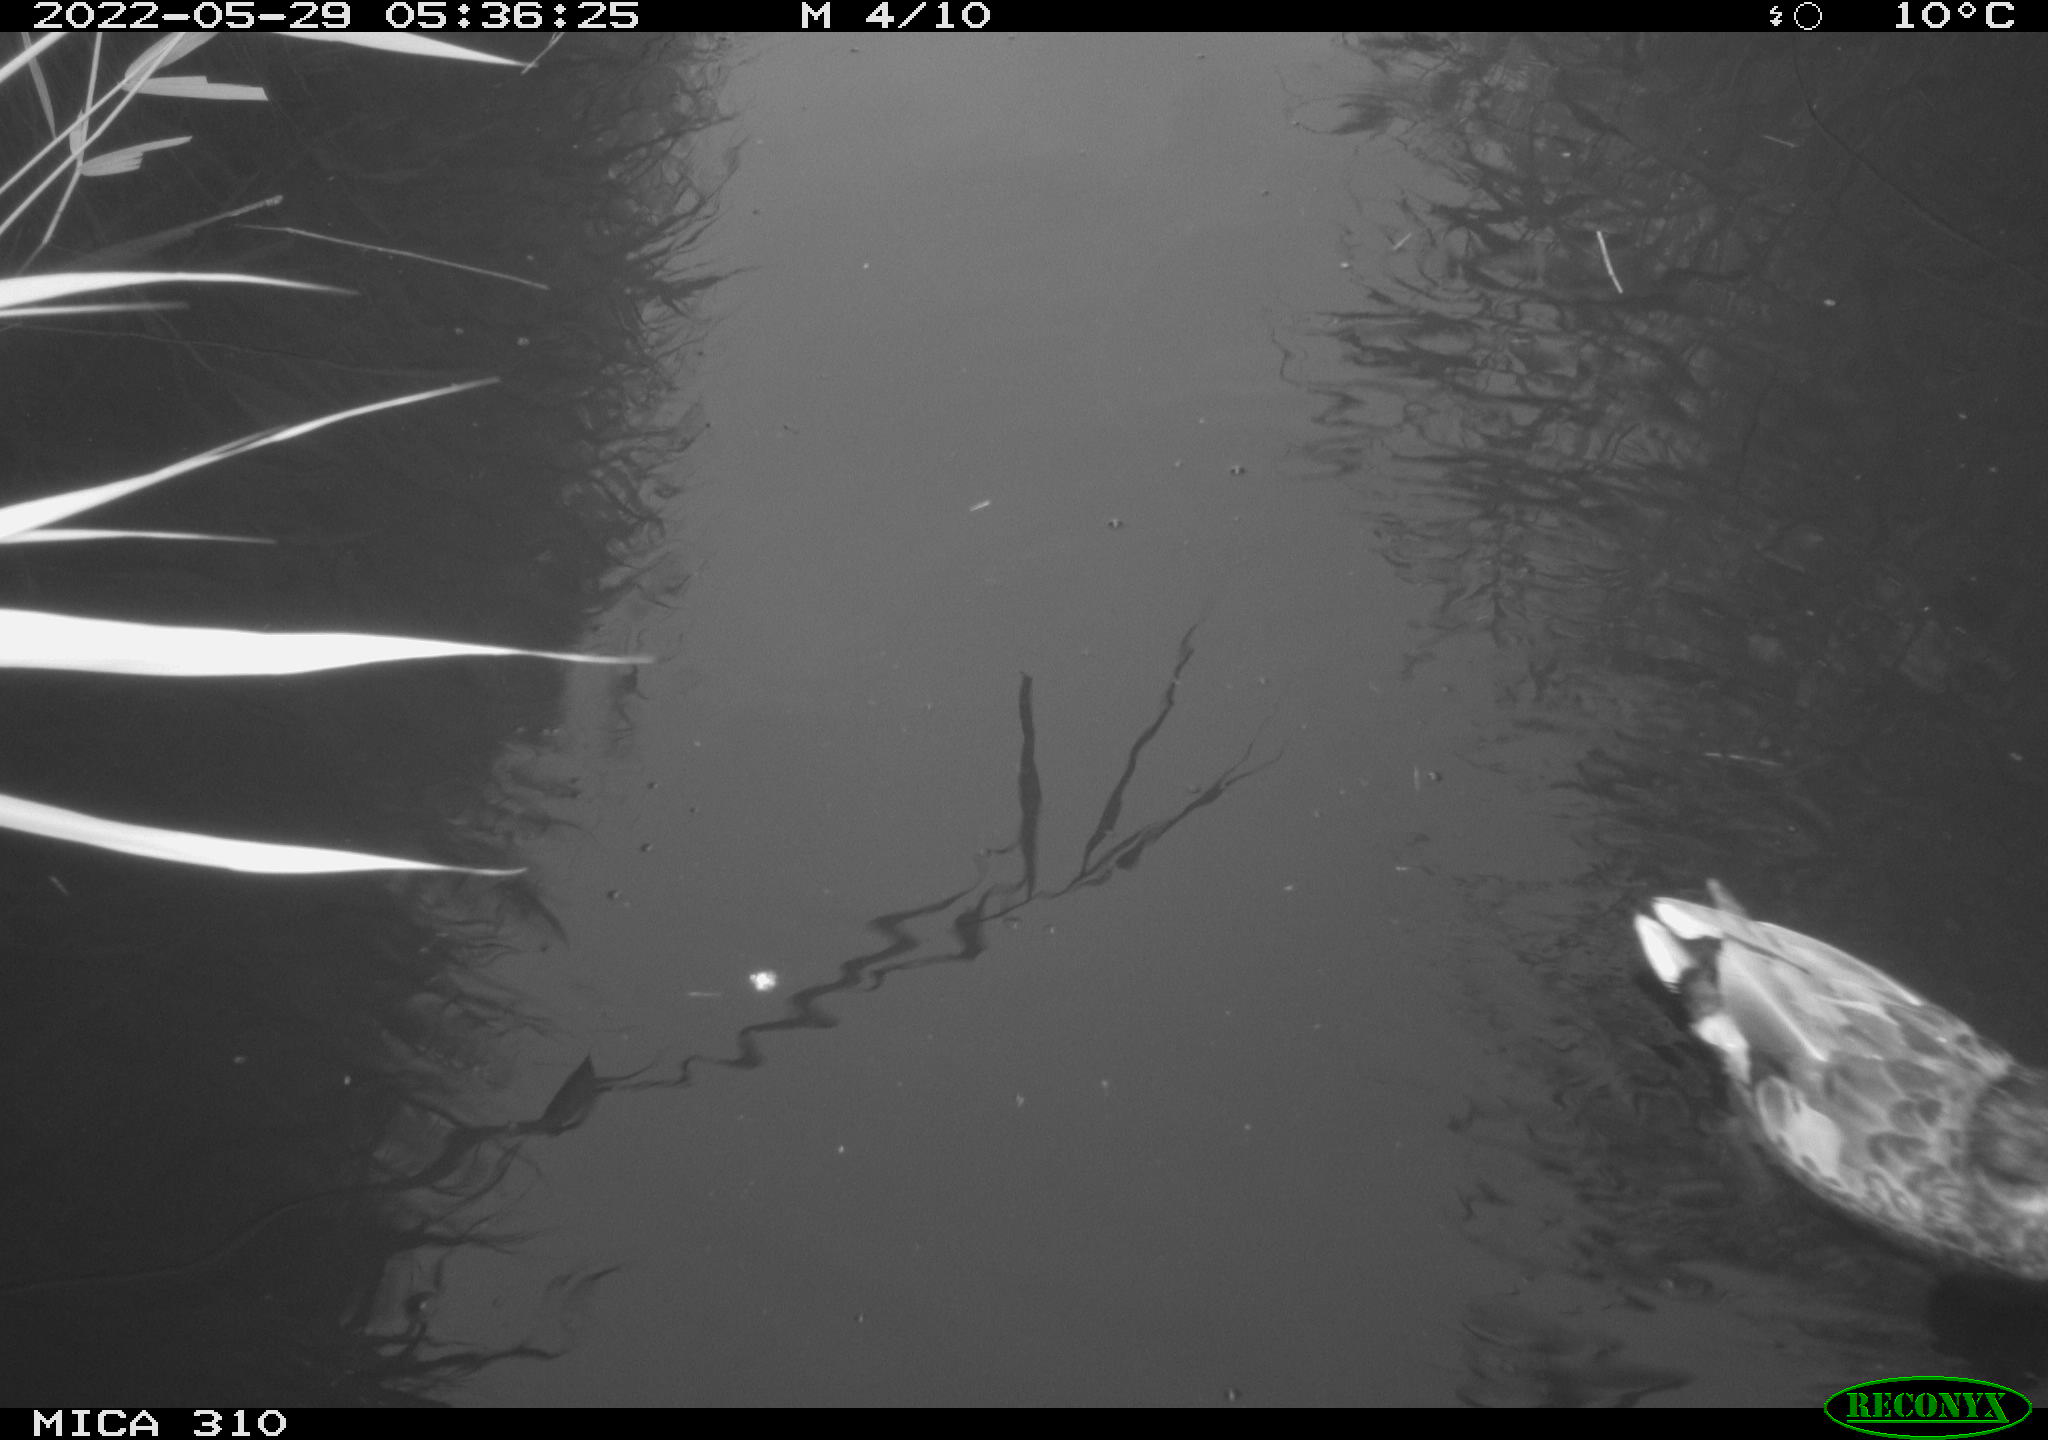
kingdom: Animalia
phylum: Chordata
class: Aves
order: Anseriformes
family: Anatidae
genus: Anas
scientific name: Anas platyrhynchos
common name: Mallard
